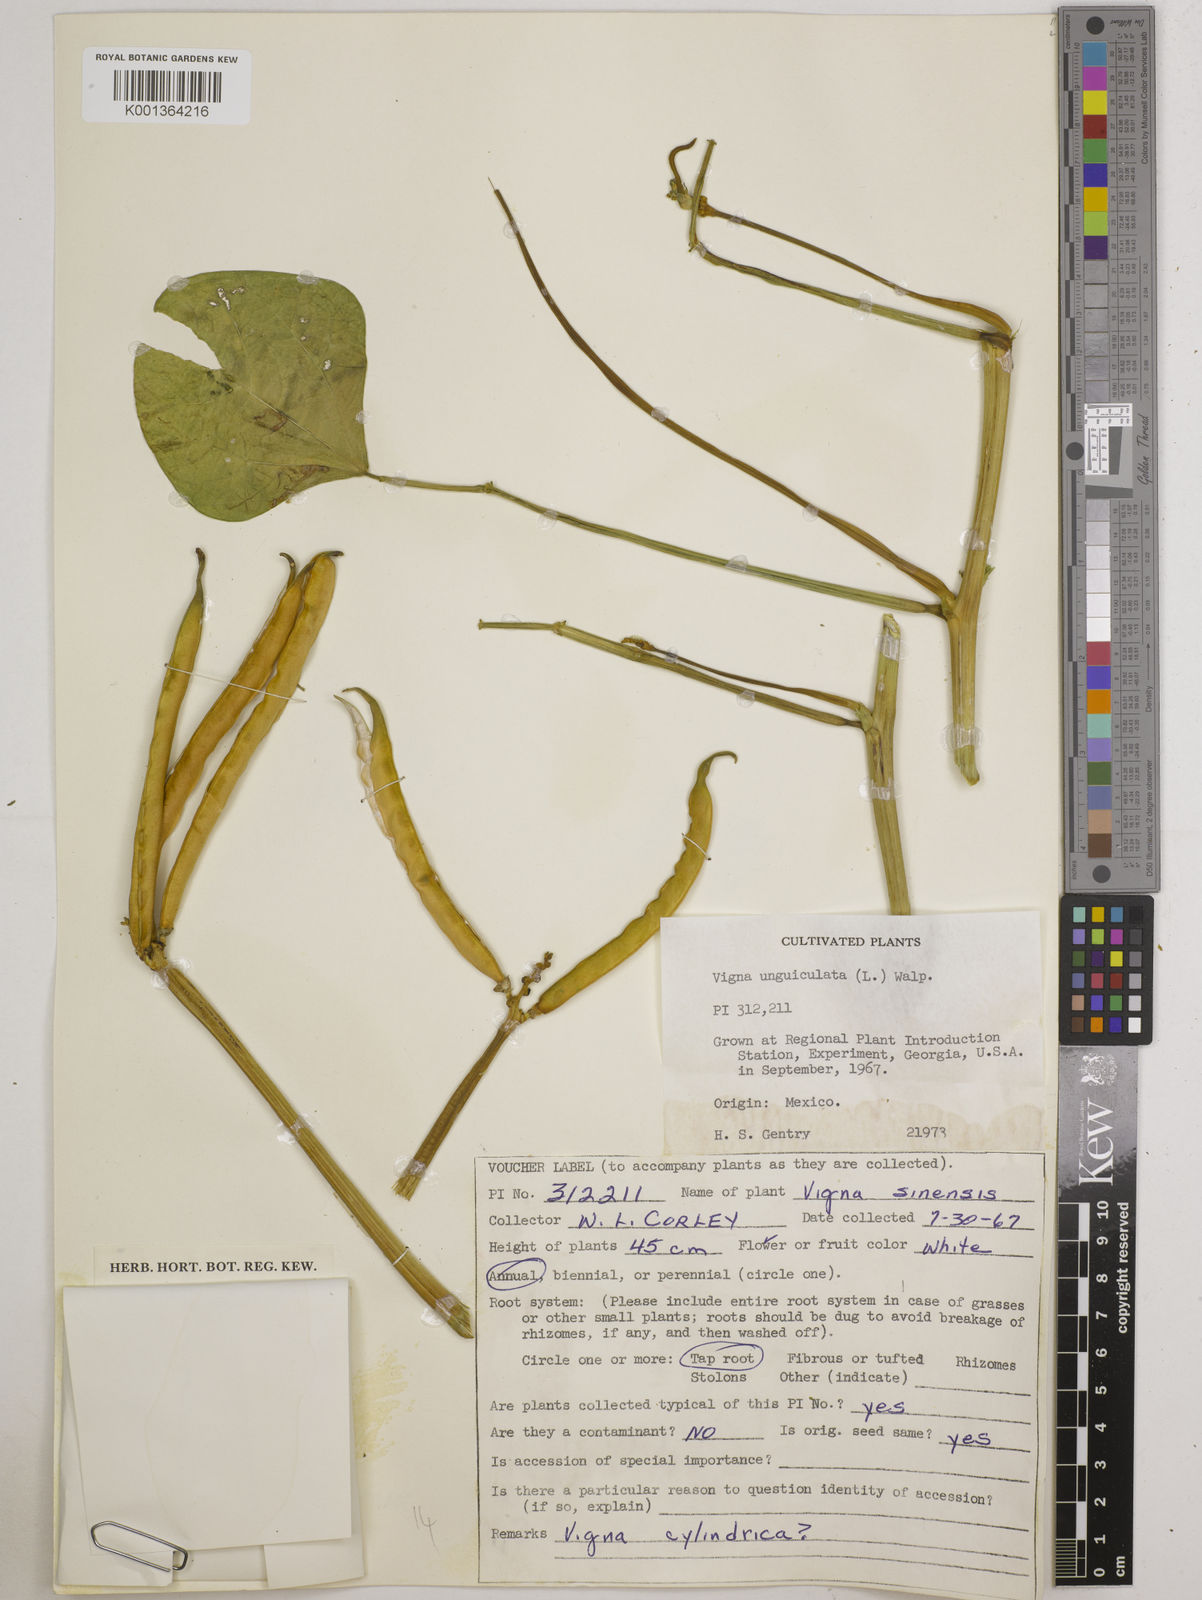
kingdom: Plantae
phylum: Tracheophyta
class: Magnoliopsida
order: Fabales
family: Fabaceae
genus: Vigna
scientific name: Vigna
